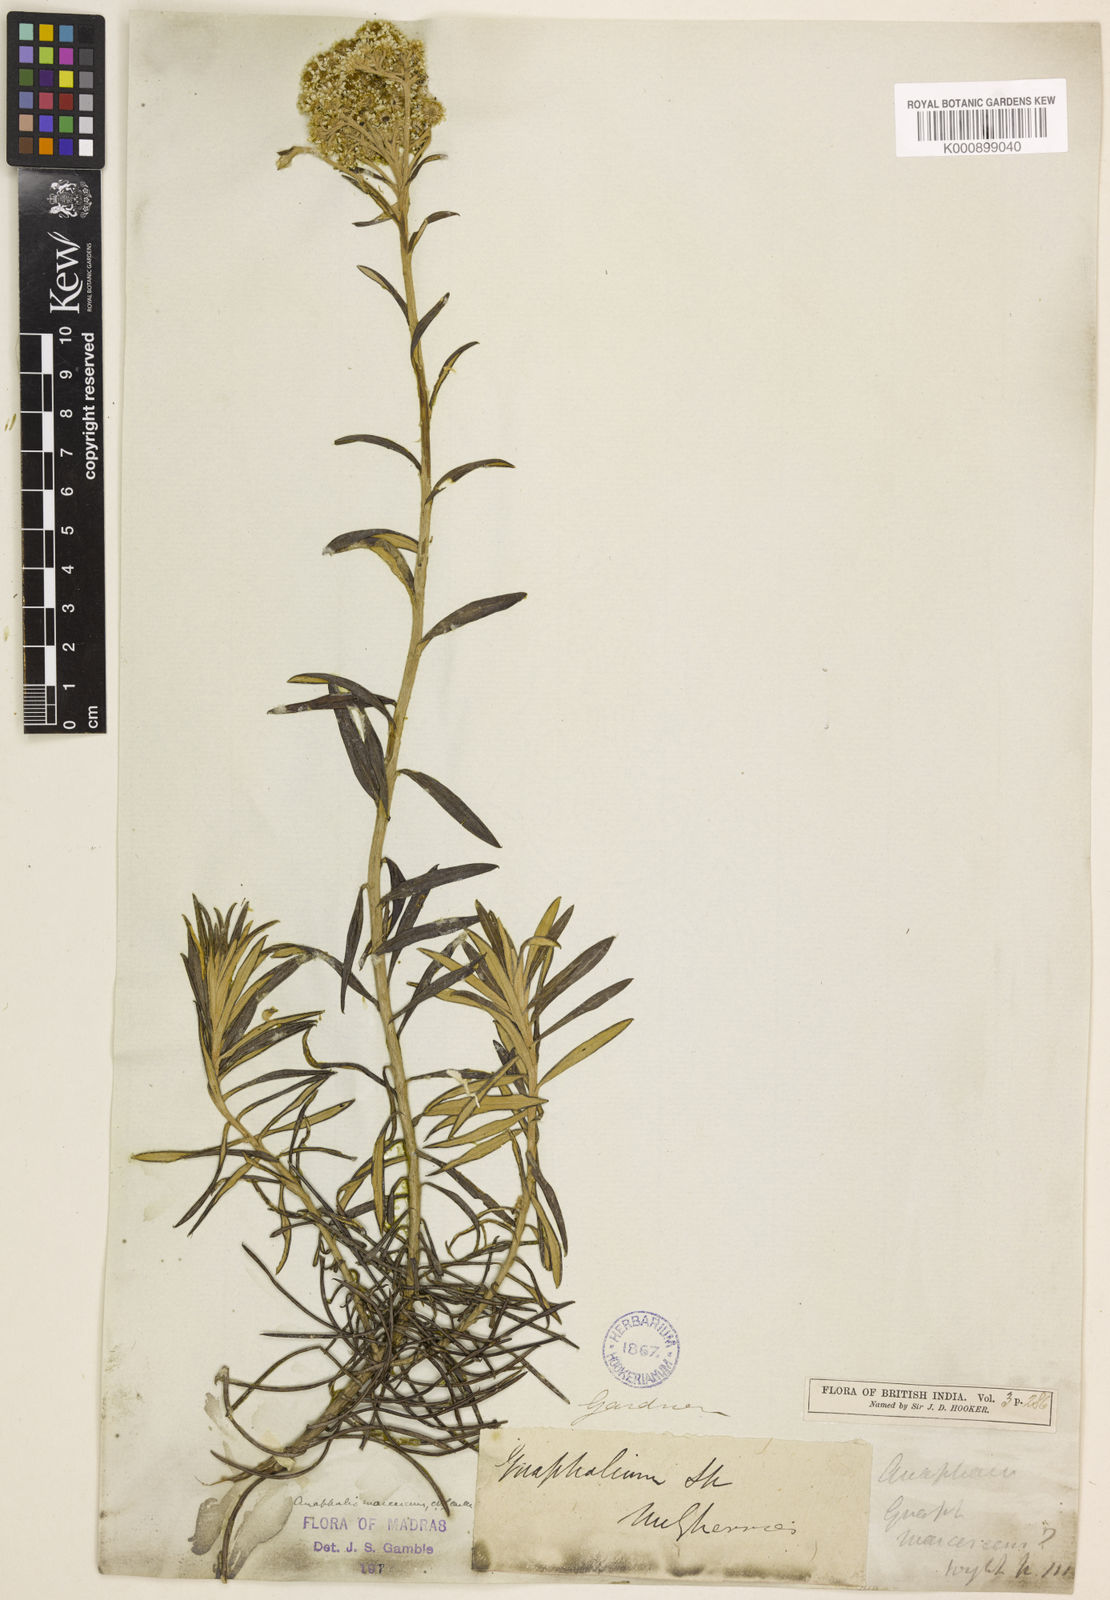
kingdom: Plantae
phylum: Tracheophyta
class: Magnoliopsida
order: Asterales
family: Asteraceae
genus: Anaphalis
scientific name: Anaphalis marcescens
